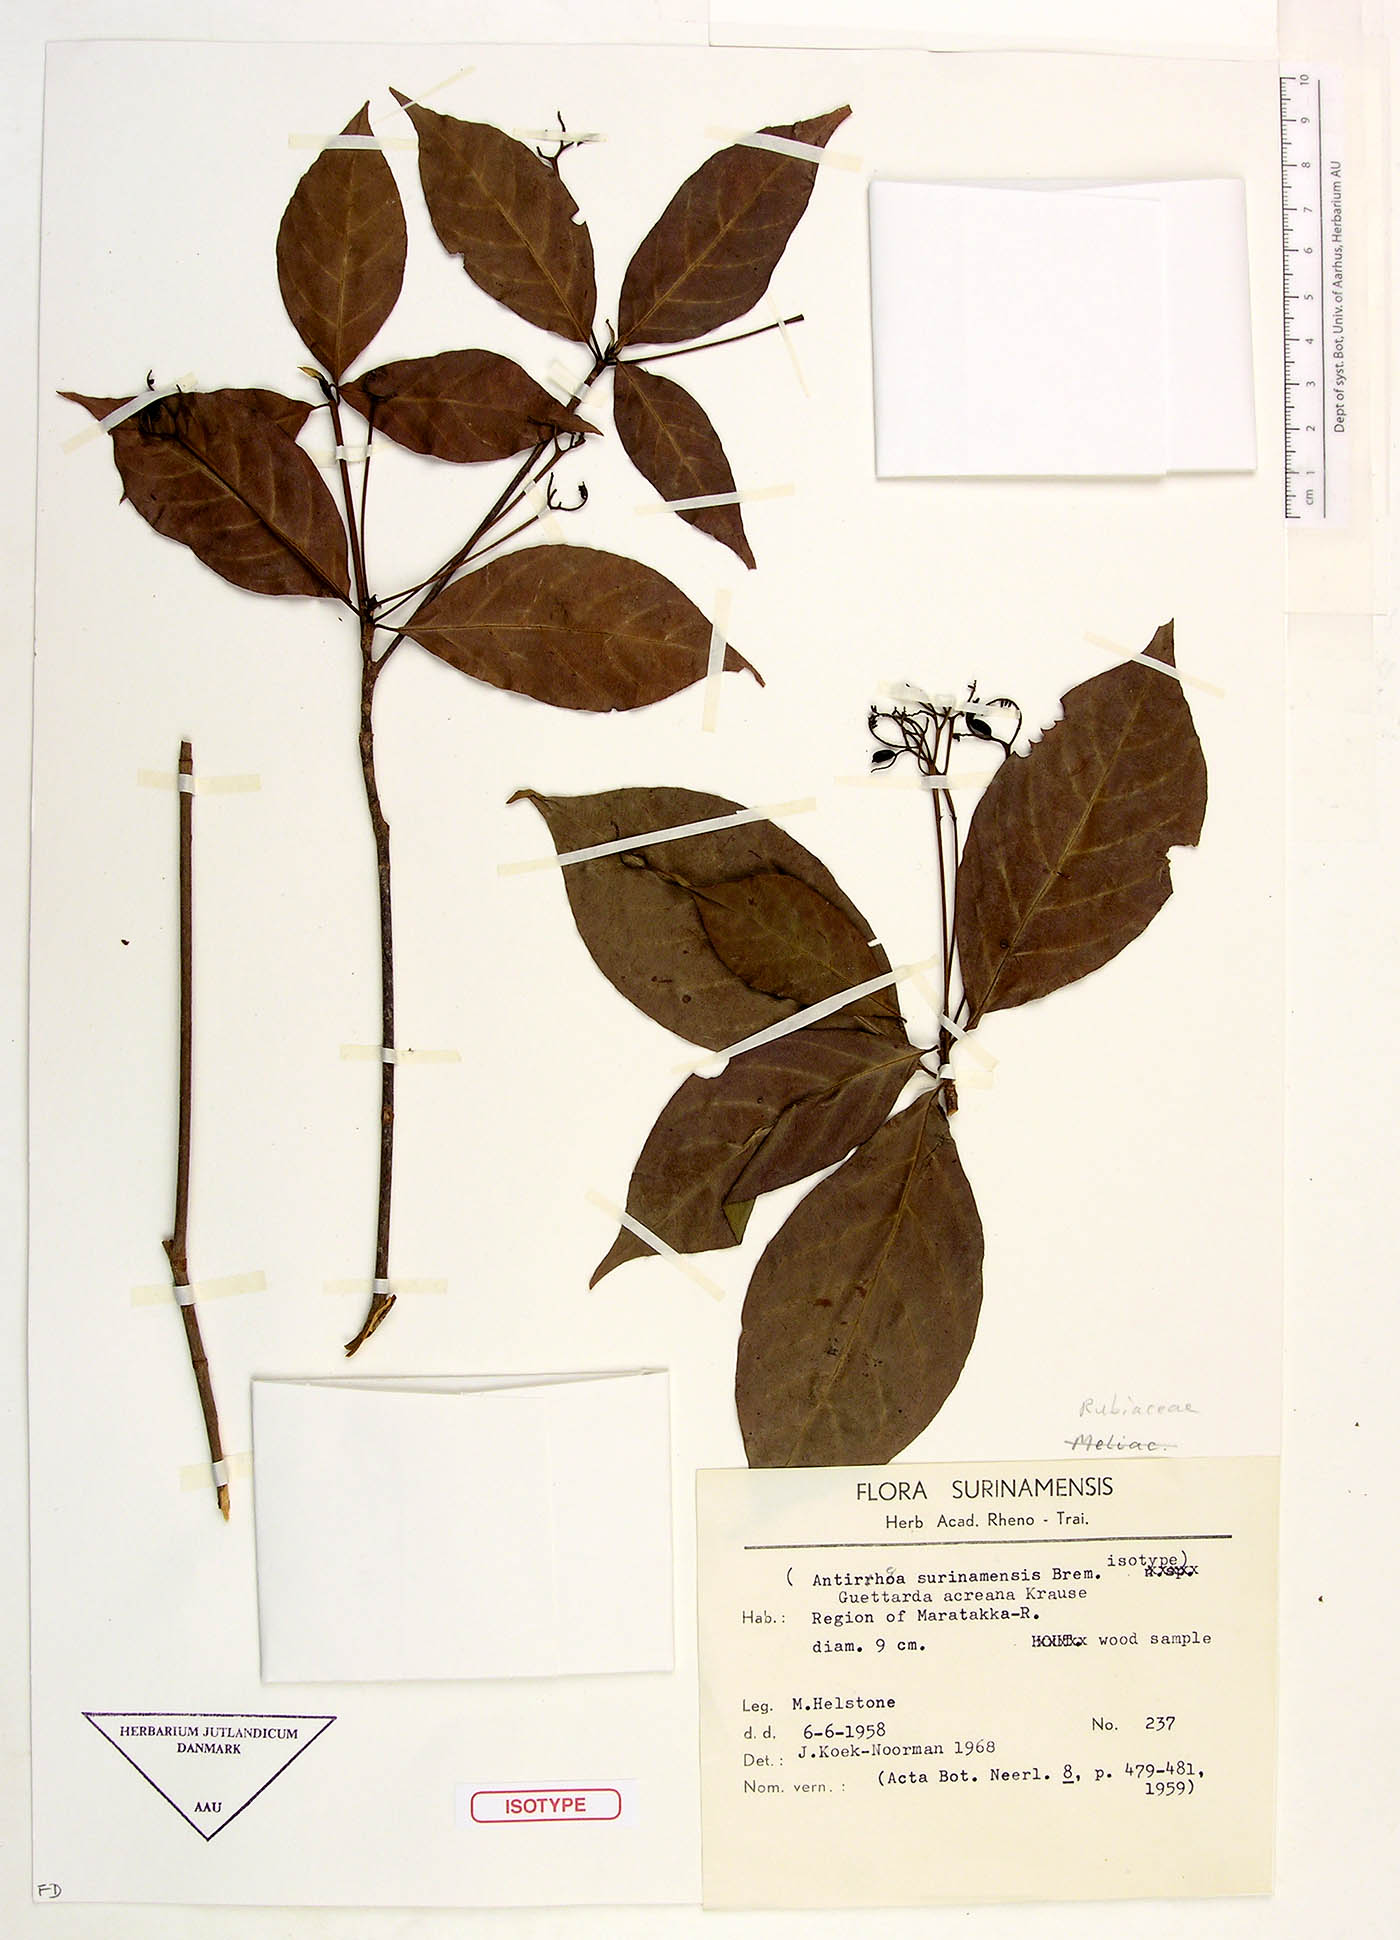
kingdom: Plantae
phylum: Tracheophyta
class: Magnoliopsida
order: Gentianales
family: Rubiaceae
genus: Stenostomum
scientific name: Stenostomum acreanum
